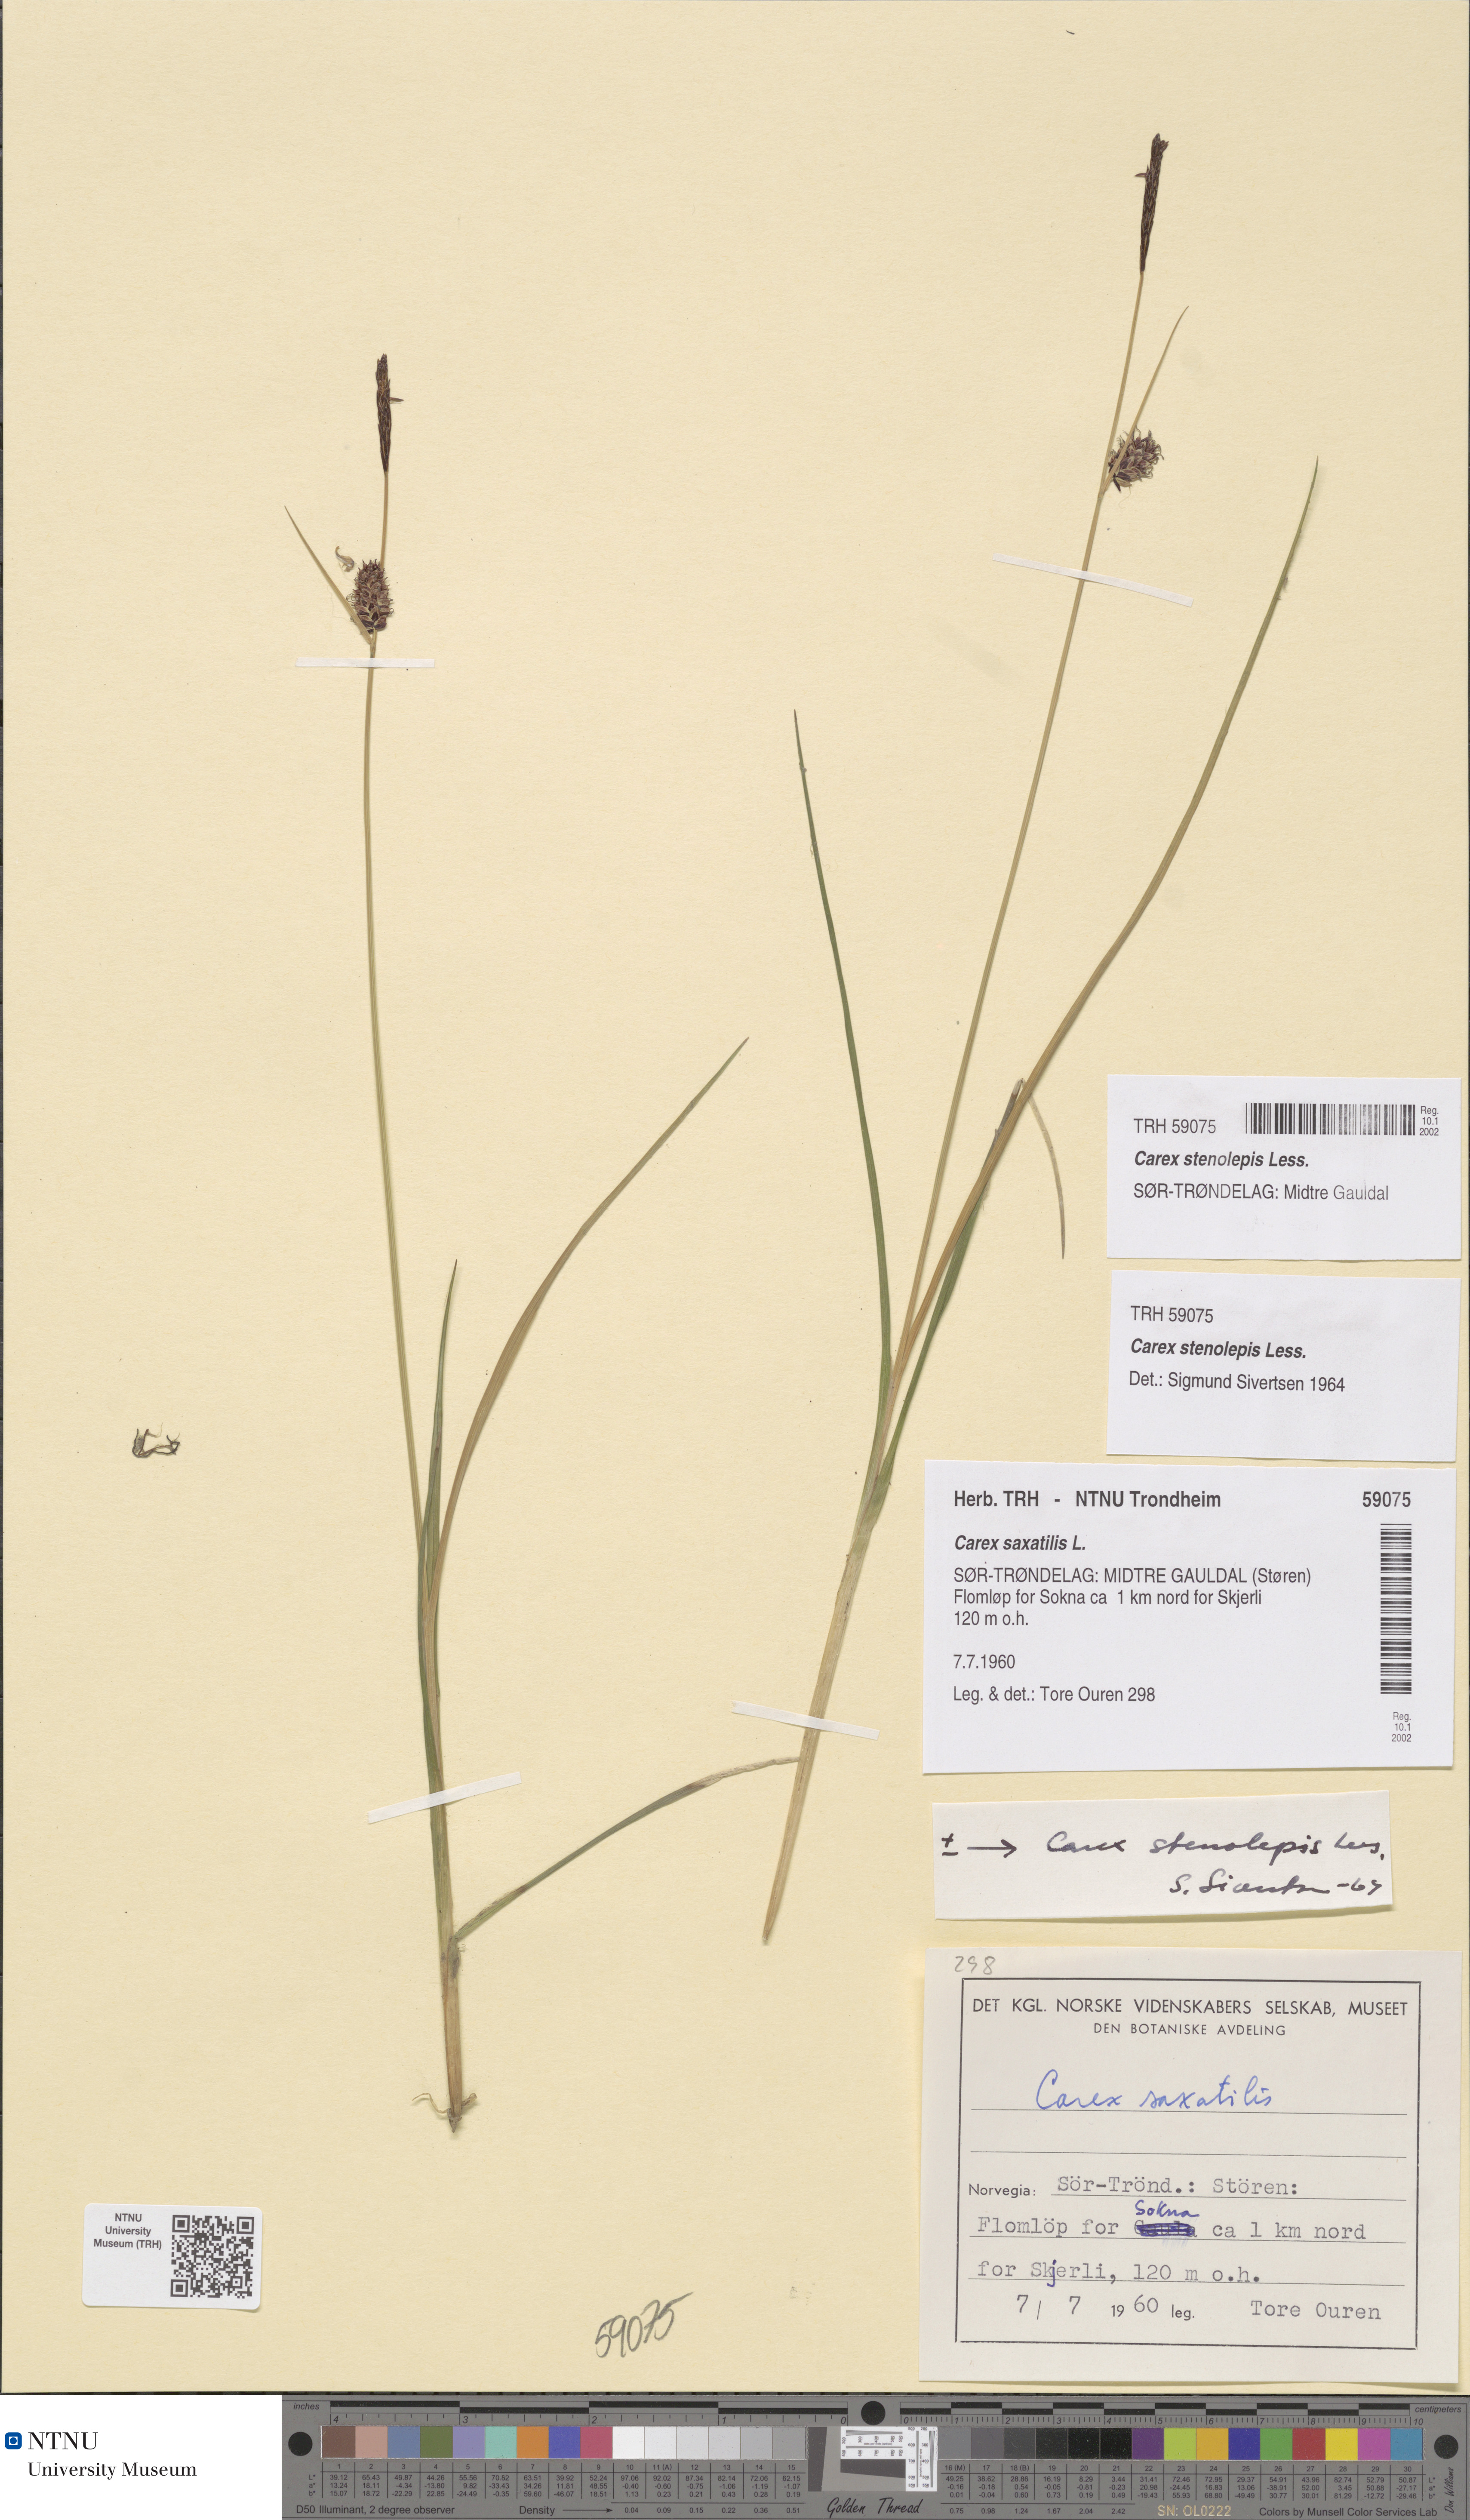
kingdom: Plantae
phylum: Tracheophyta
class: Liliopsida
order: Poales
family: Cyperaceae
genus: Carex
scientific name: Carex grahamii
